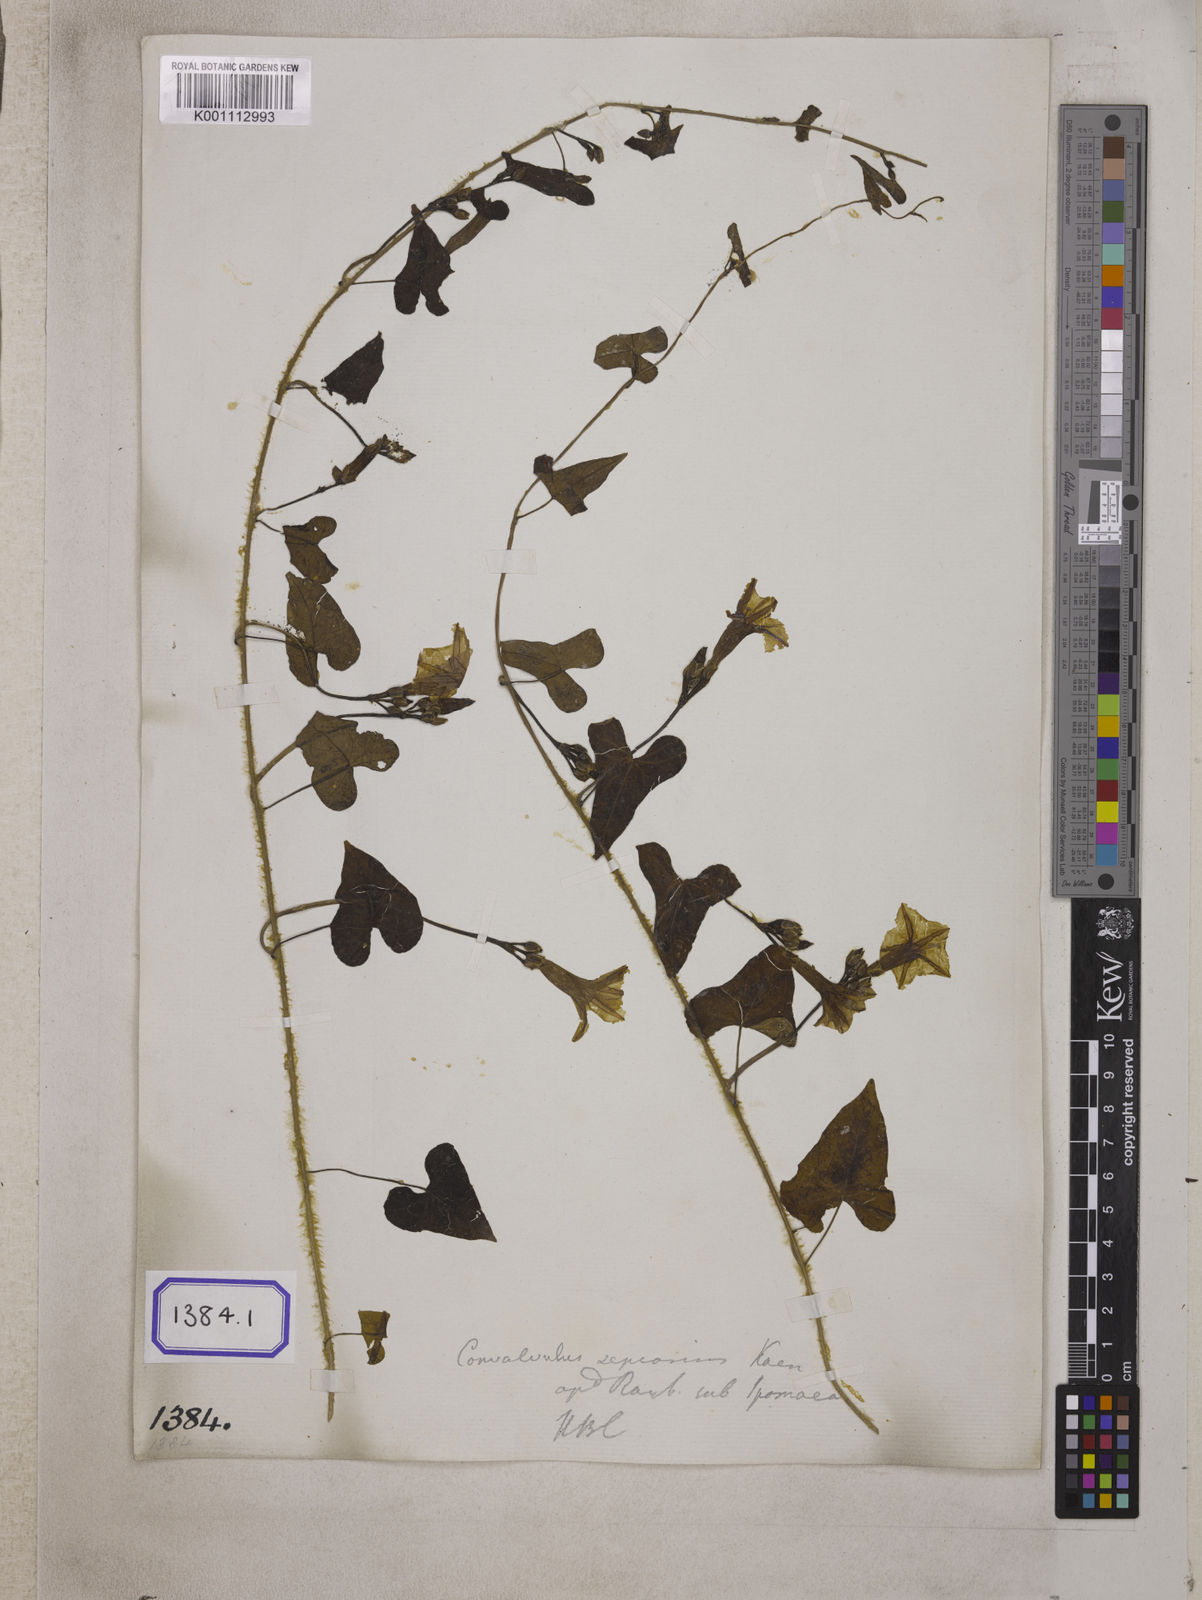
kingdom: Plantae
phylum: Tracheophyta
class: Magnoliopsida
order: Solanales
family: Convolvulaceae
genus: Ipomoea
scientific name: Ipomoea sagittifolia
